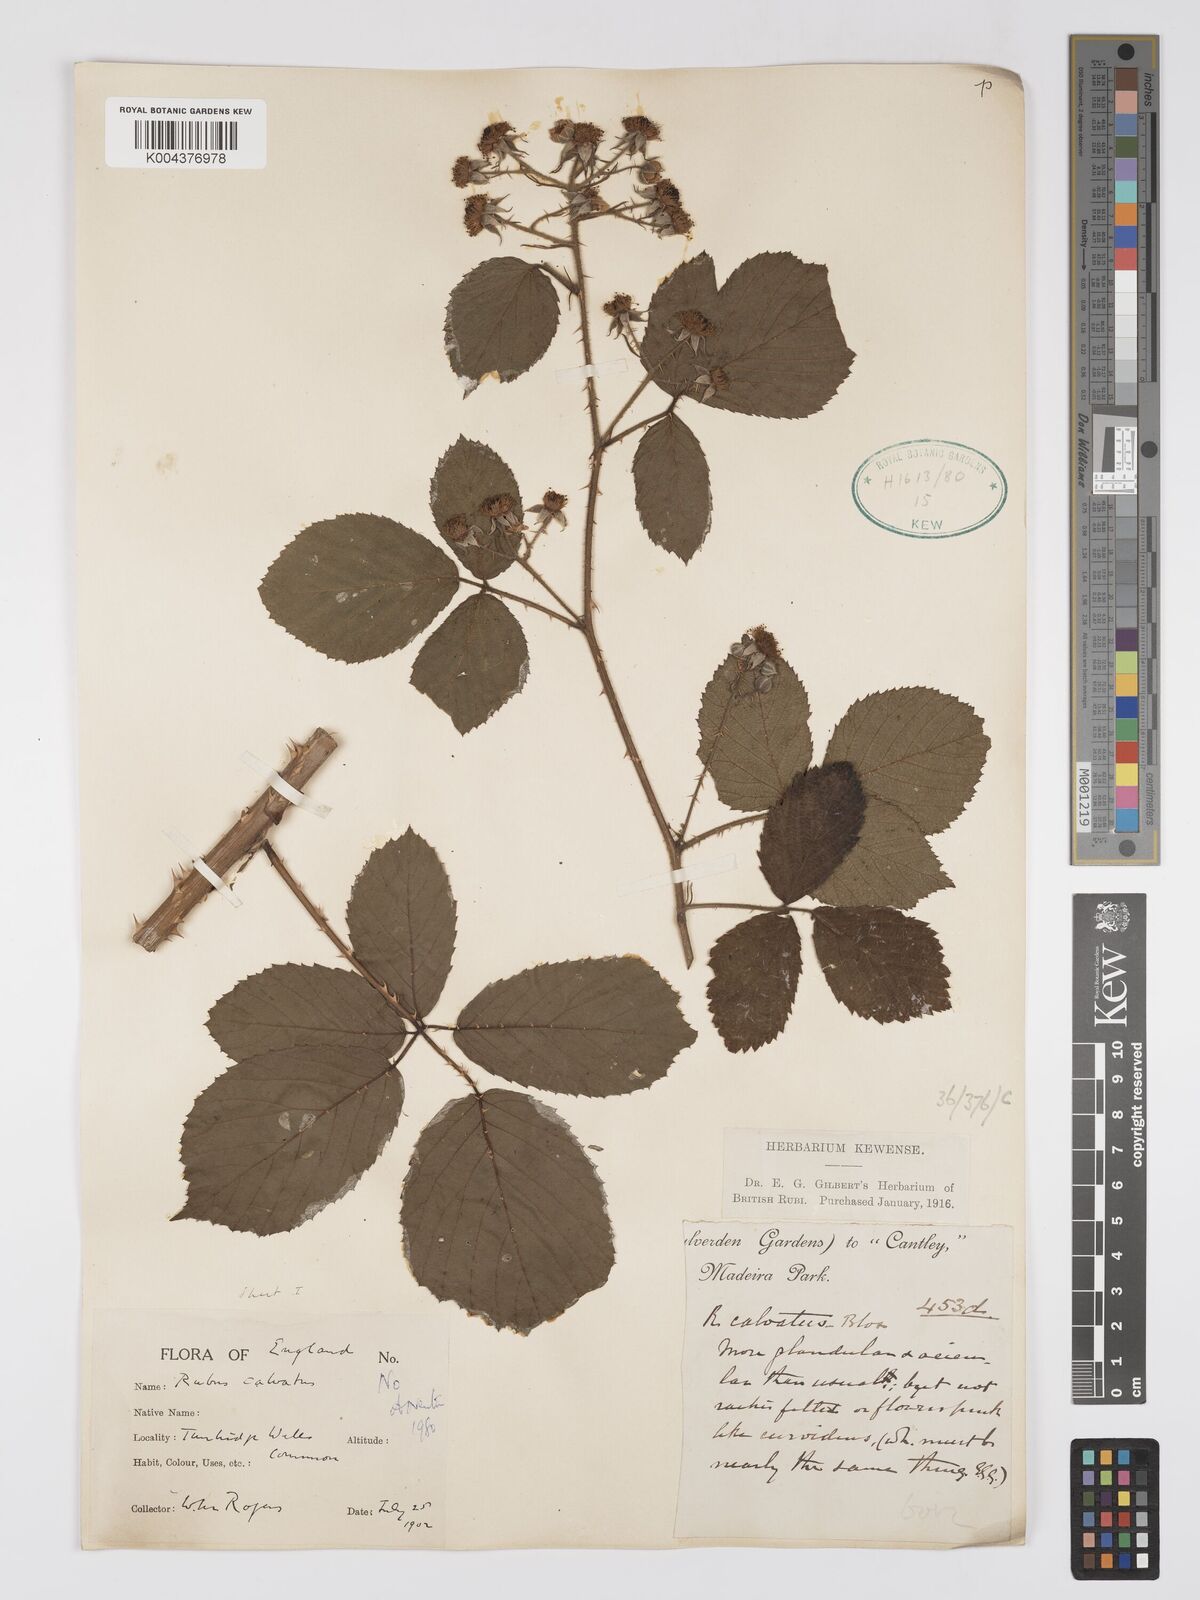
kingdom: Plantae
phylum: Tracheophyta
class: Magnoliopsida
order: Rosales
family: Rosaceae
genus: Rubus
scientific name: Rubus calvatus
